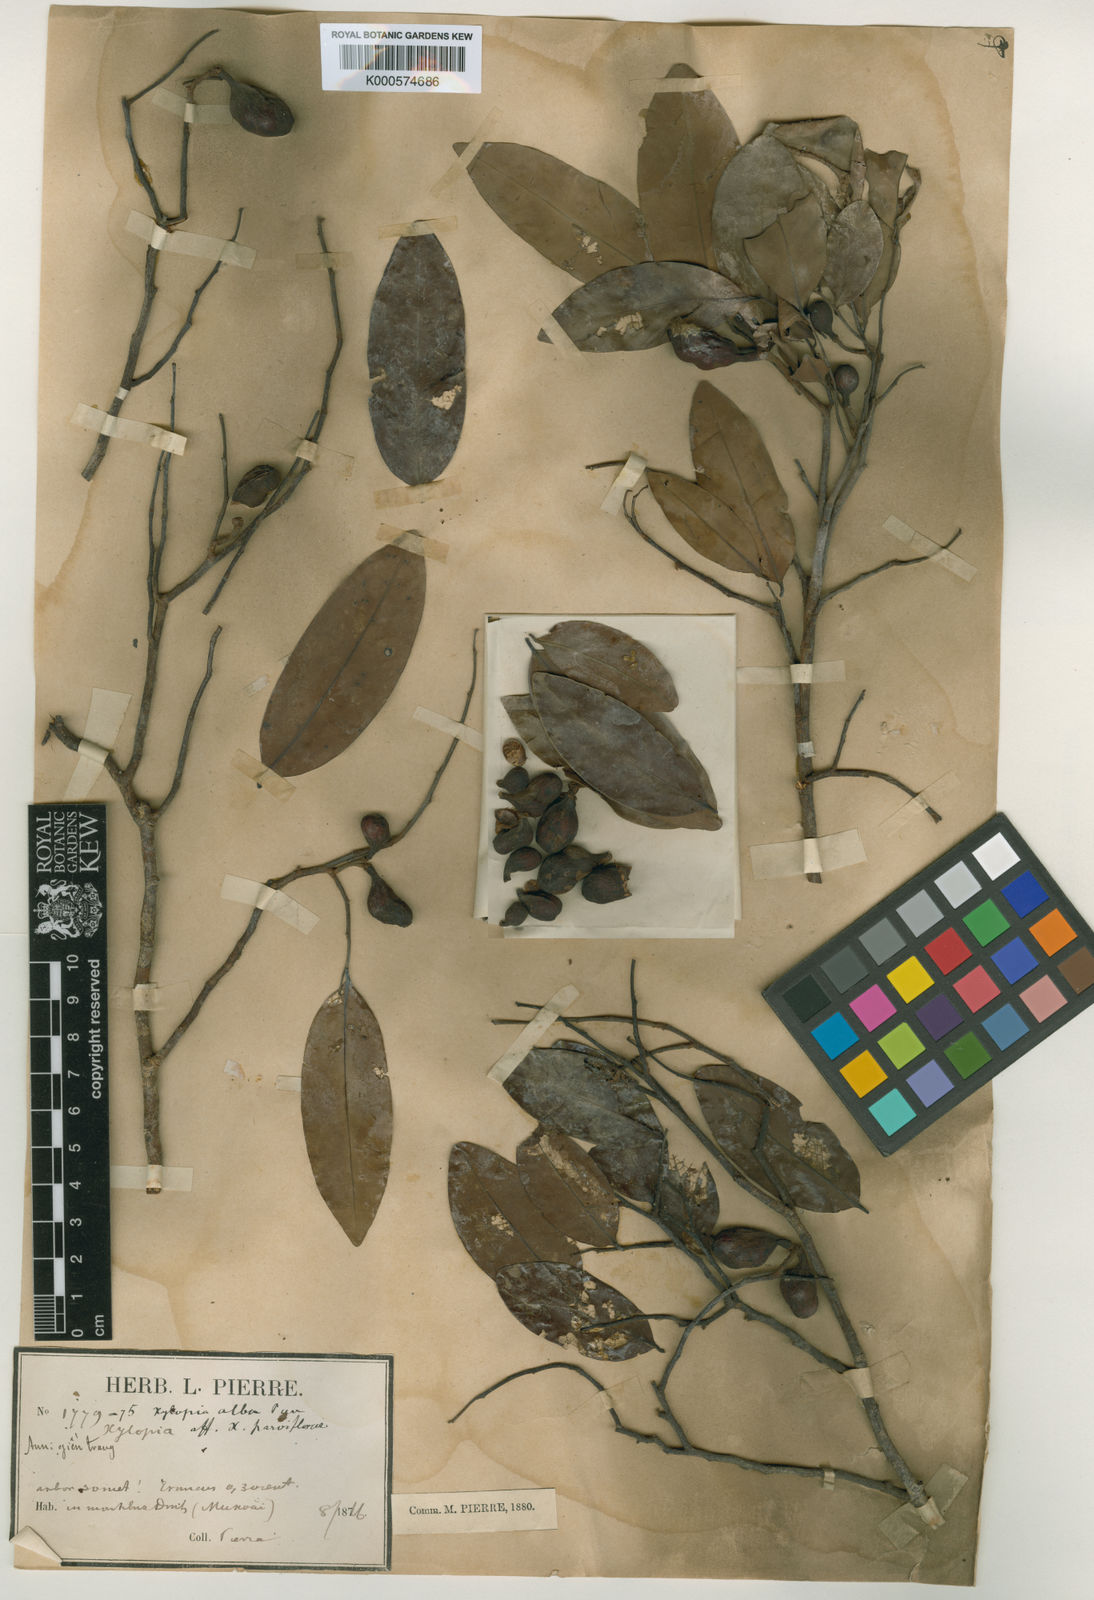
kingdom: Plantae
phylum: Tracheophyta
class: Magnoliopsida
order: Magnoliales
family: Annonaceae
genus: Xylopia
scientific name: Xylopia pierrei
